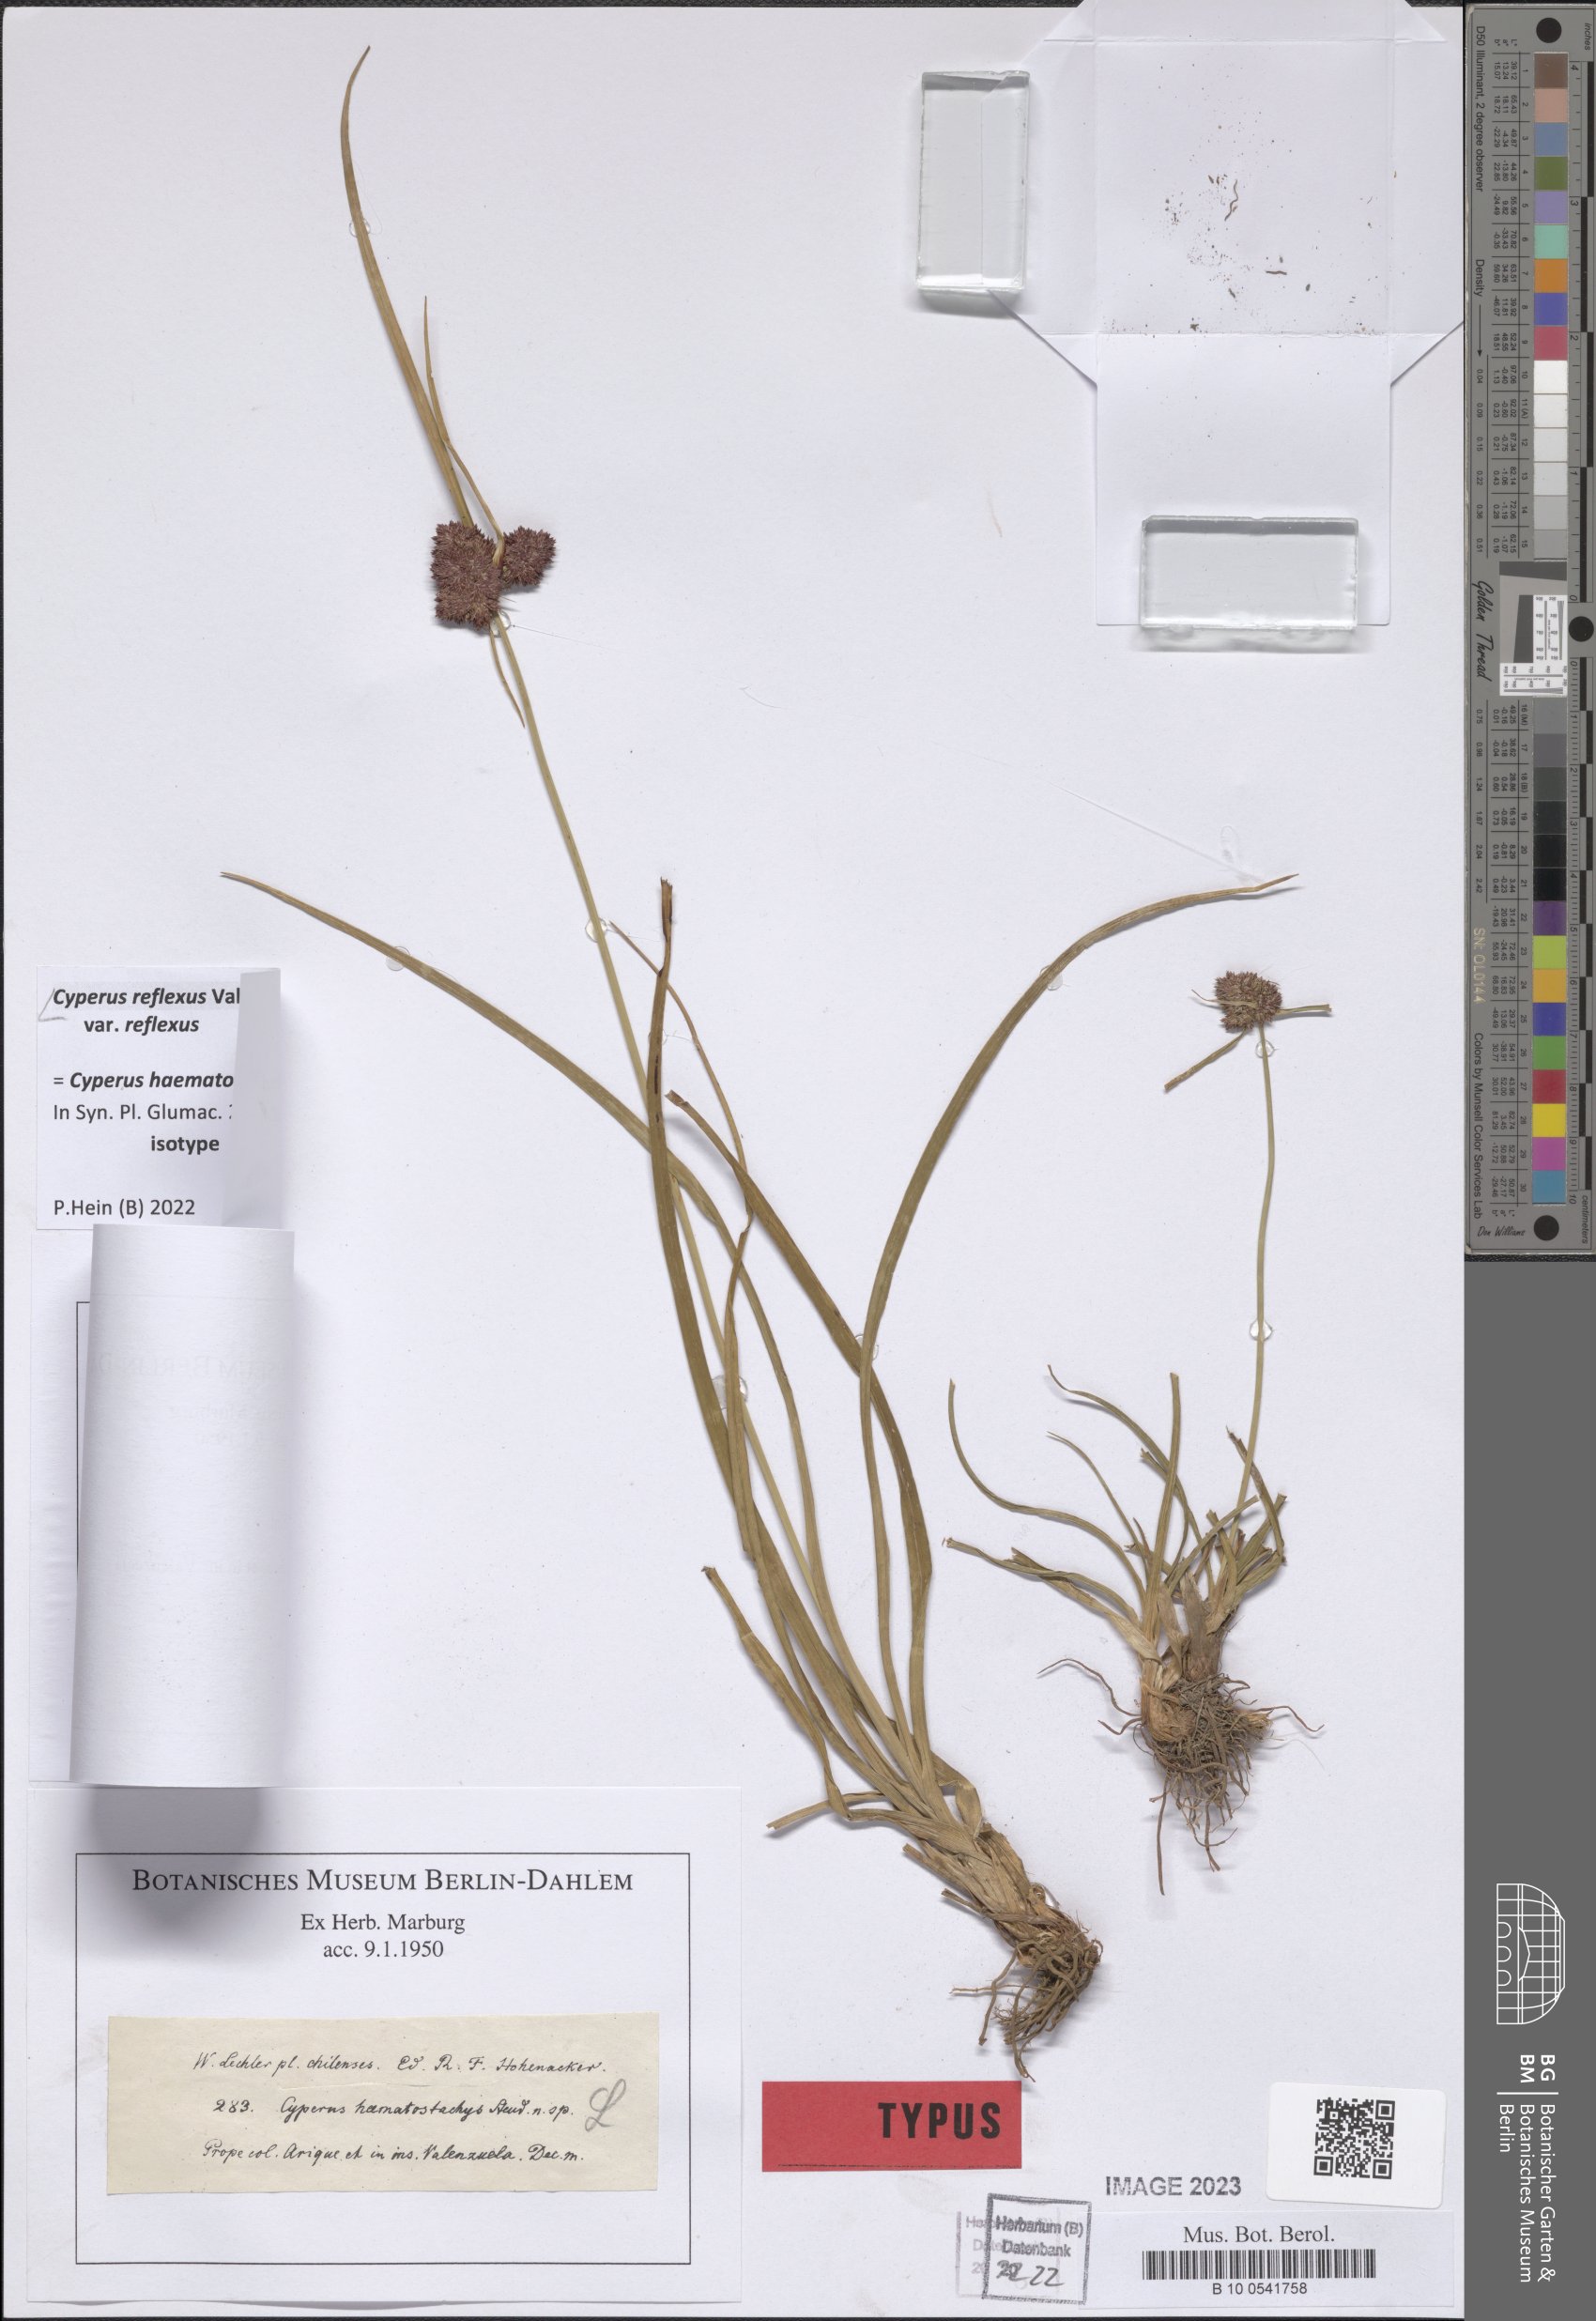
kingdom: Plantae
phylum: Tracheophyta
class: Liliopsida
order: Poales
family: Cyperaceae
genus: Cyperus
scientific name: Cyperus reflexus
